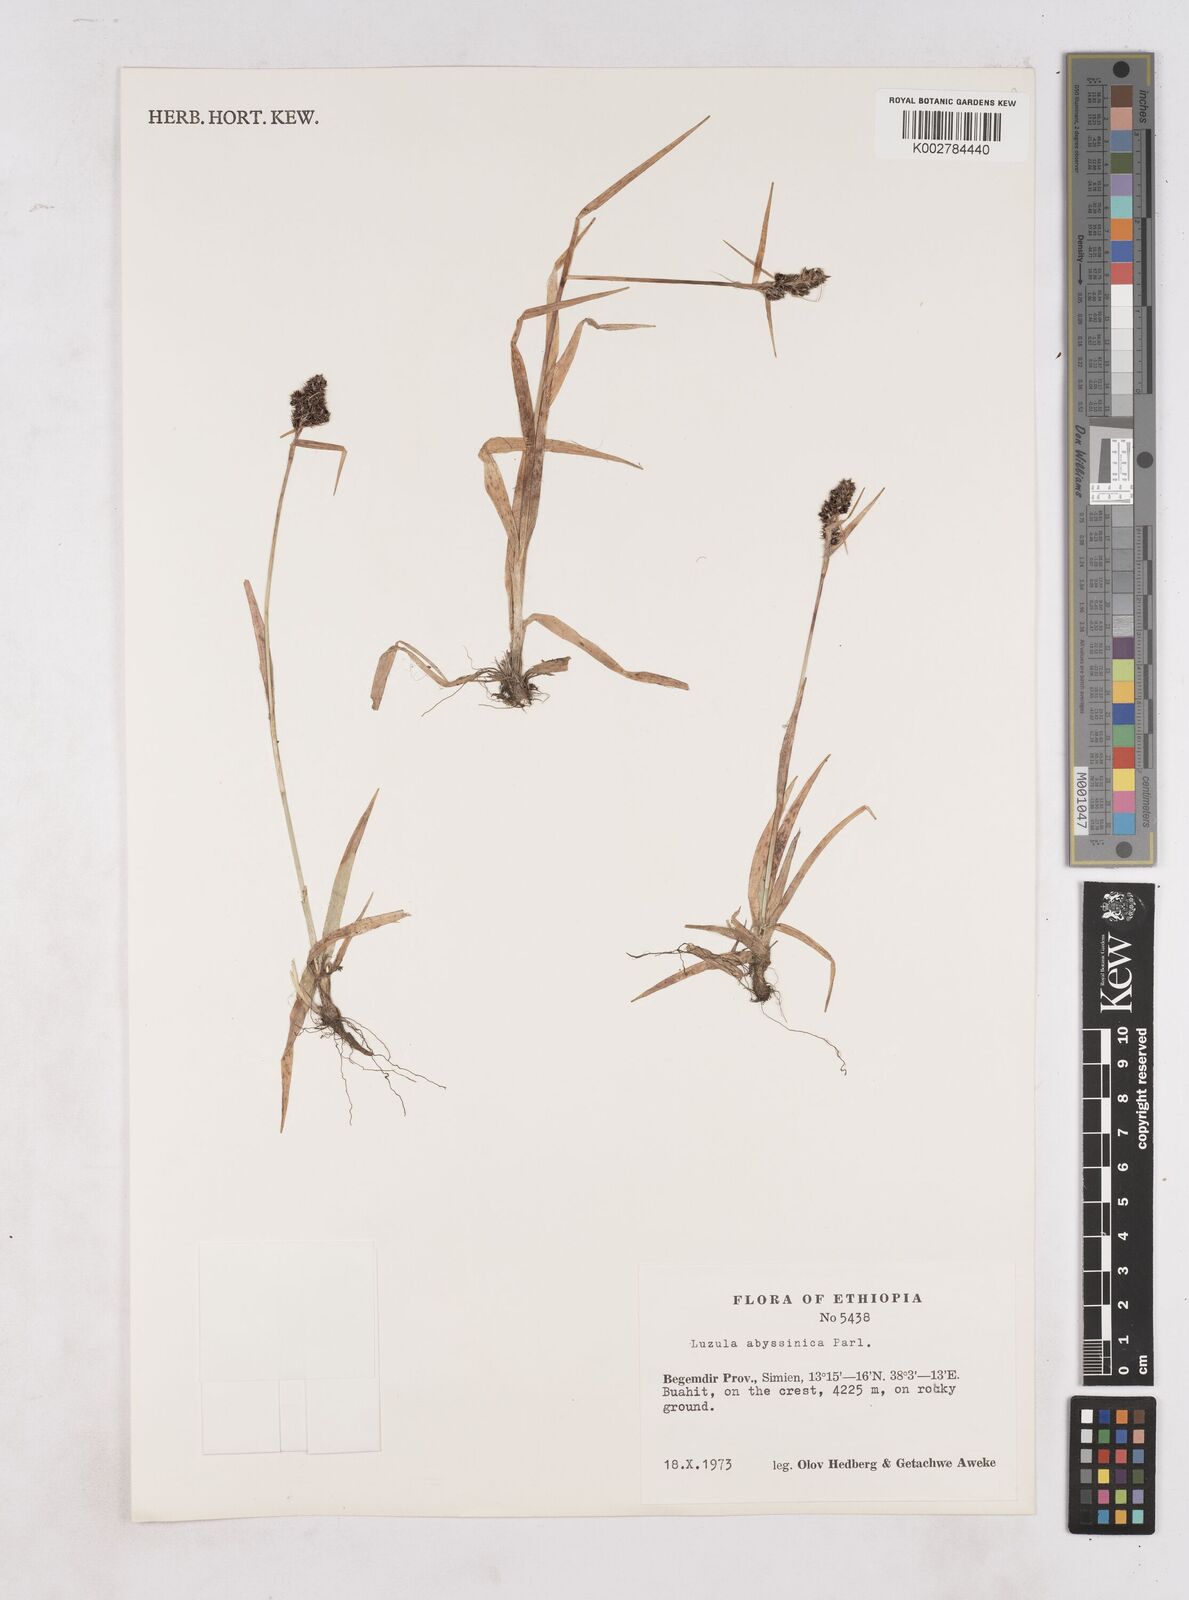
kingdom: Plantae
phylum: Tracheophyta
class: Liliopsida
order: Poales
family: Juncaceae
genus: Luzula
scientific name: Luzula abyssinica
